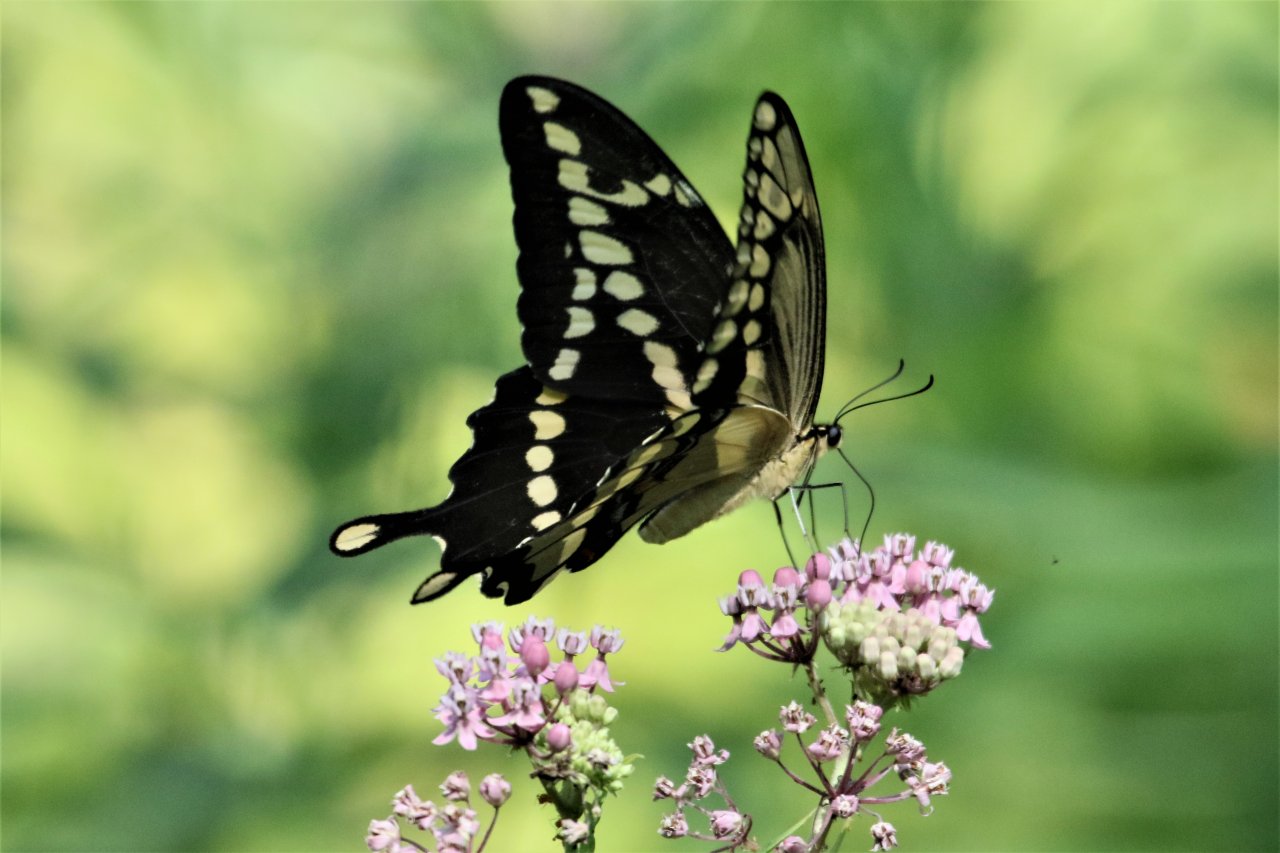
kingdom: Animalia
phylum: Arthropoda
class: Insecta
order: Lepidoptera
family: Papilionidae
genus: Papilio
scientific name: Papilio cresphontes
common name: Eastern Giant Swallowtail
